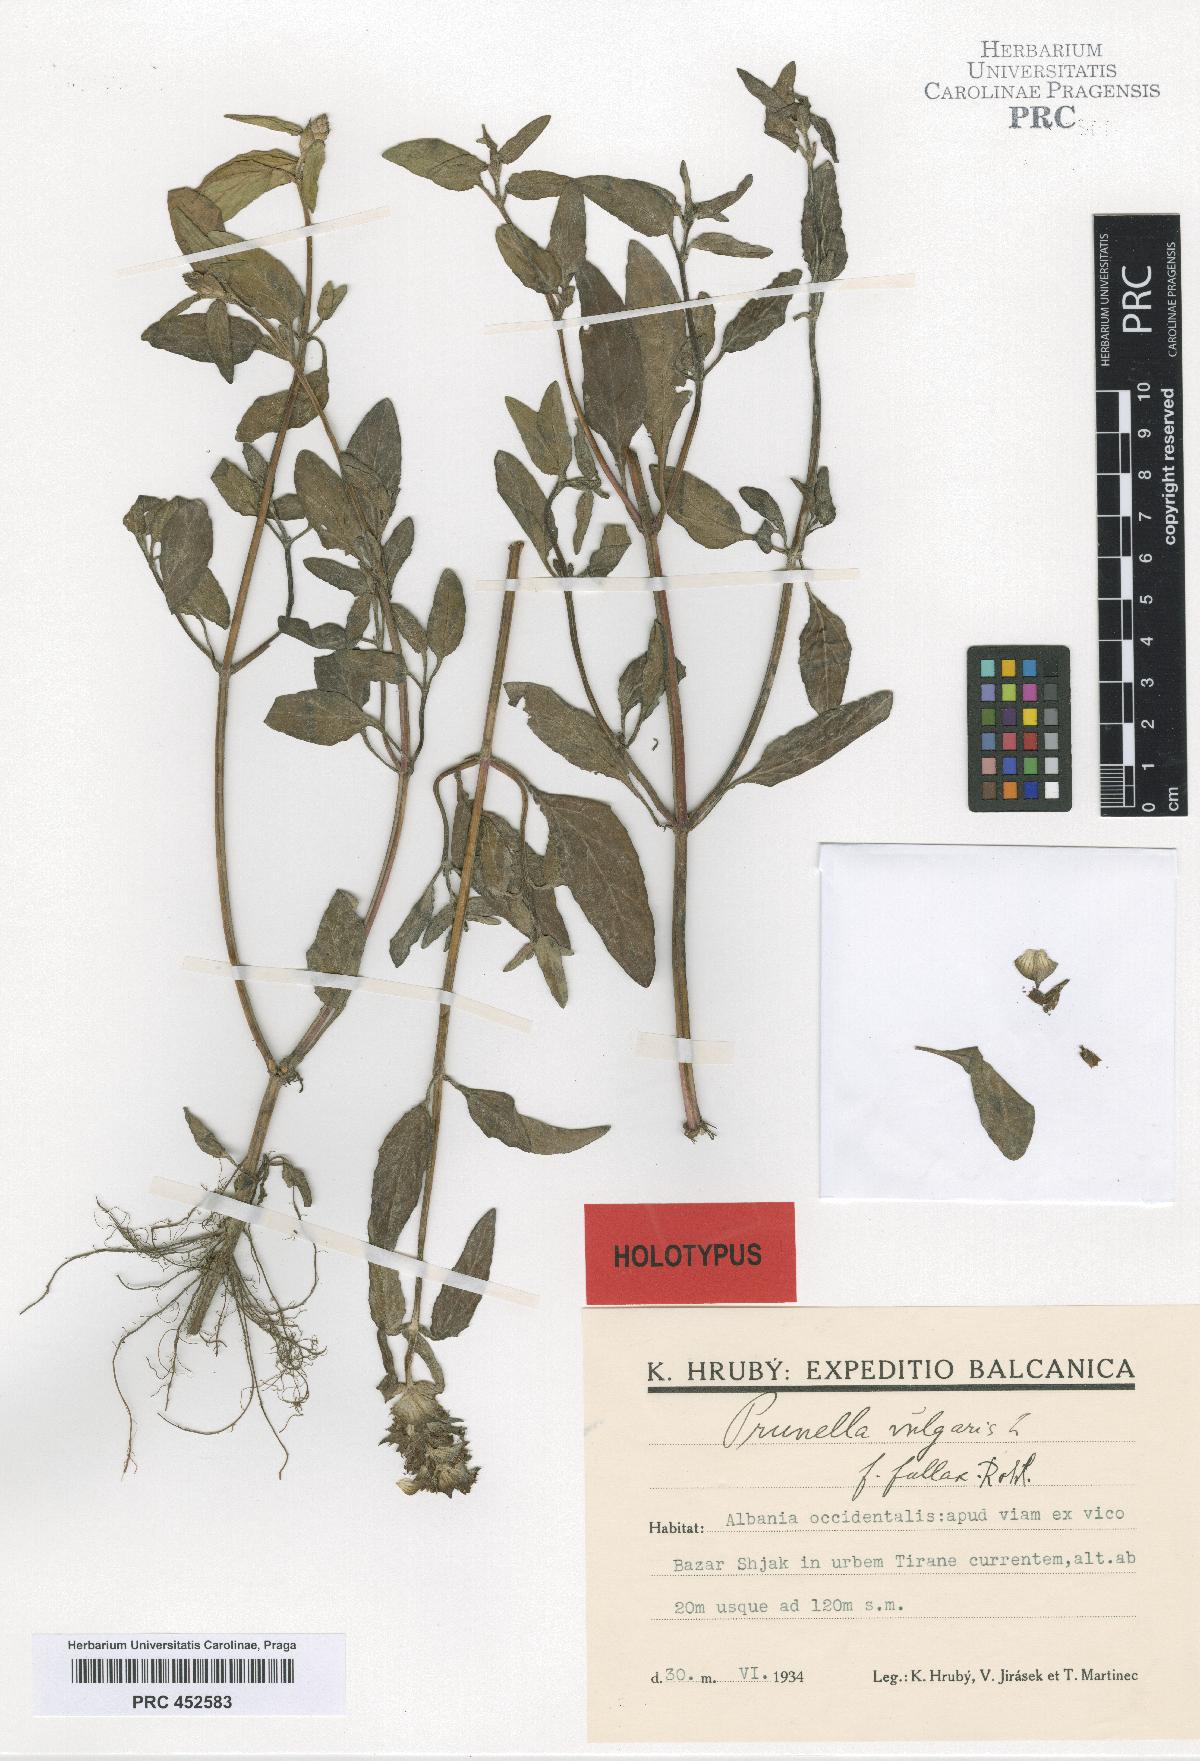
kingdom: Plantae
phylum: Tracheophyta
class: Magnoliopsida
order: Lamiales
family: Lamiaceae
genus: Prunella
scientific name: Prunella vulgaris
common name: Heal-all
